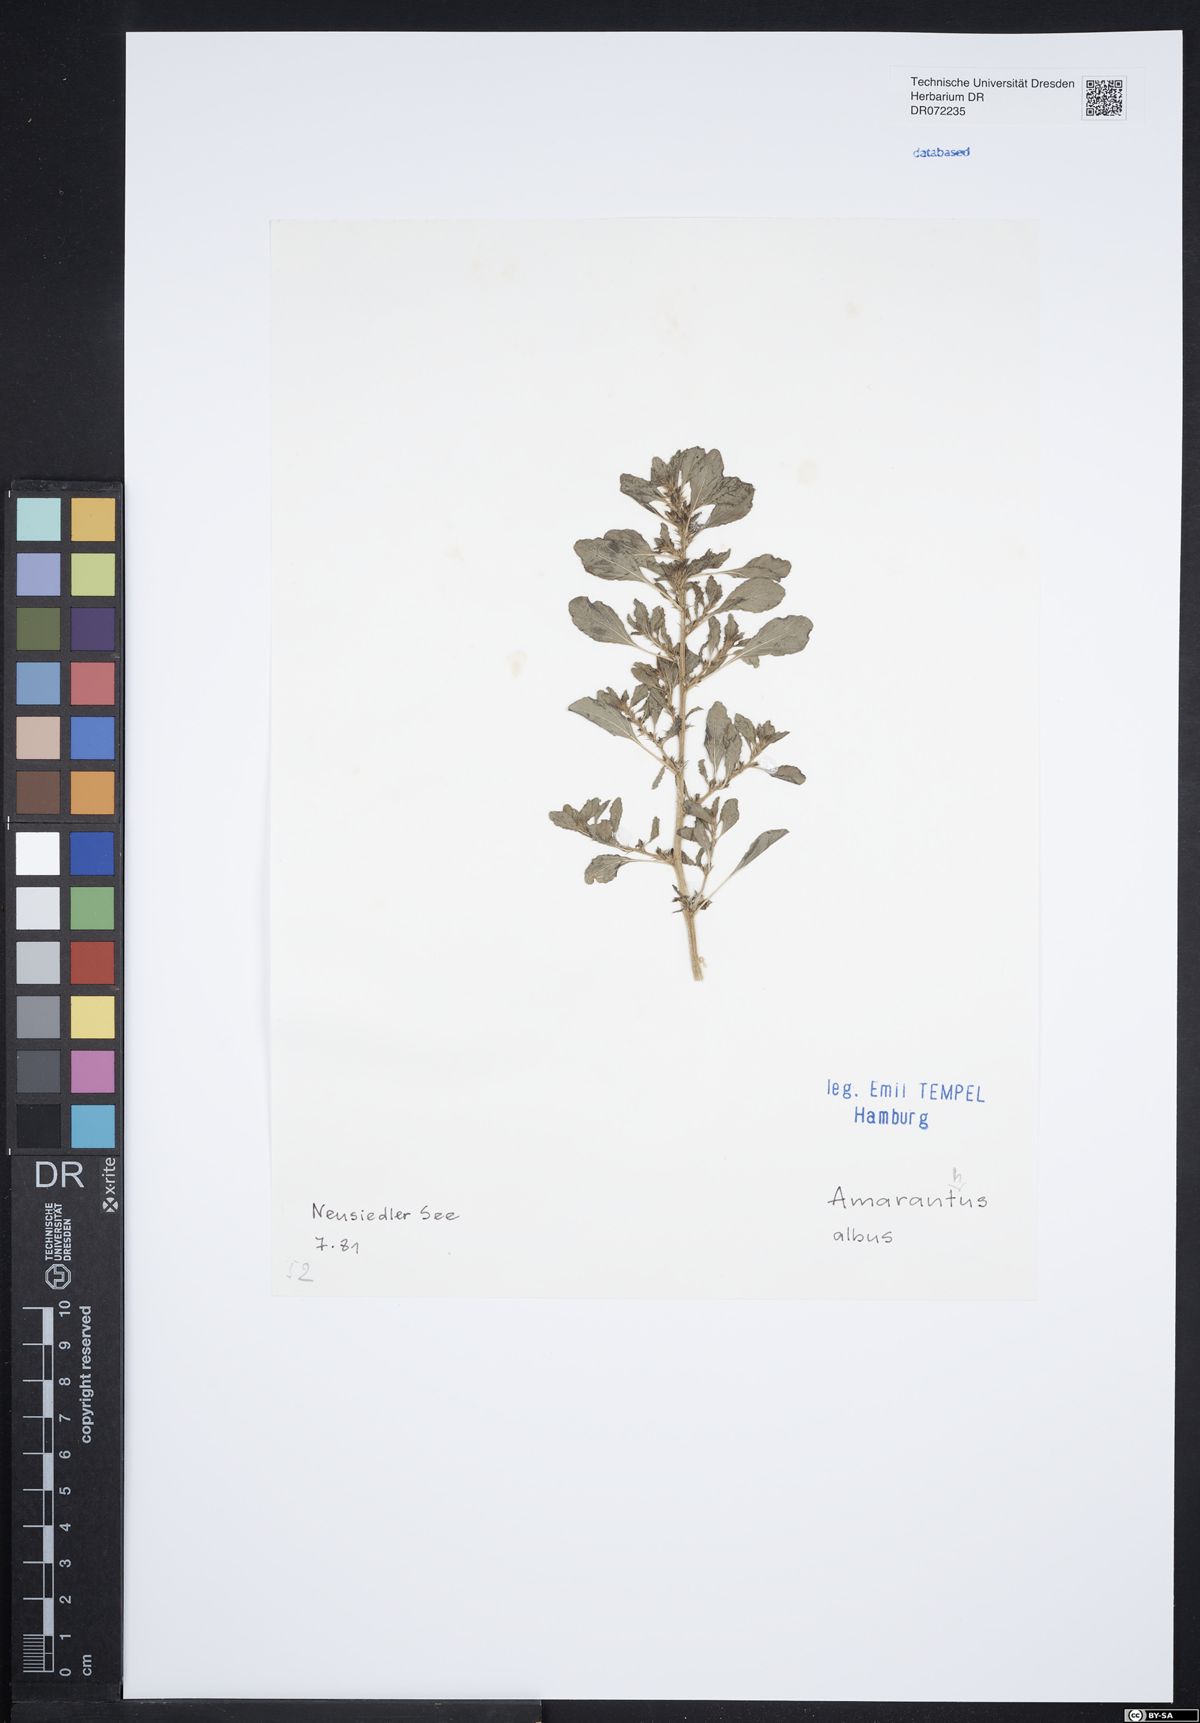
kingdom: Plantae
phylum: Tracheophyta
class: Magnoliopsida
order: Caryophyllales
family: Amaranthaceae
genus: Amaranthus
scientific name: Amaranthus albus
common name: White pigweed
